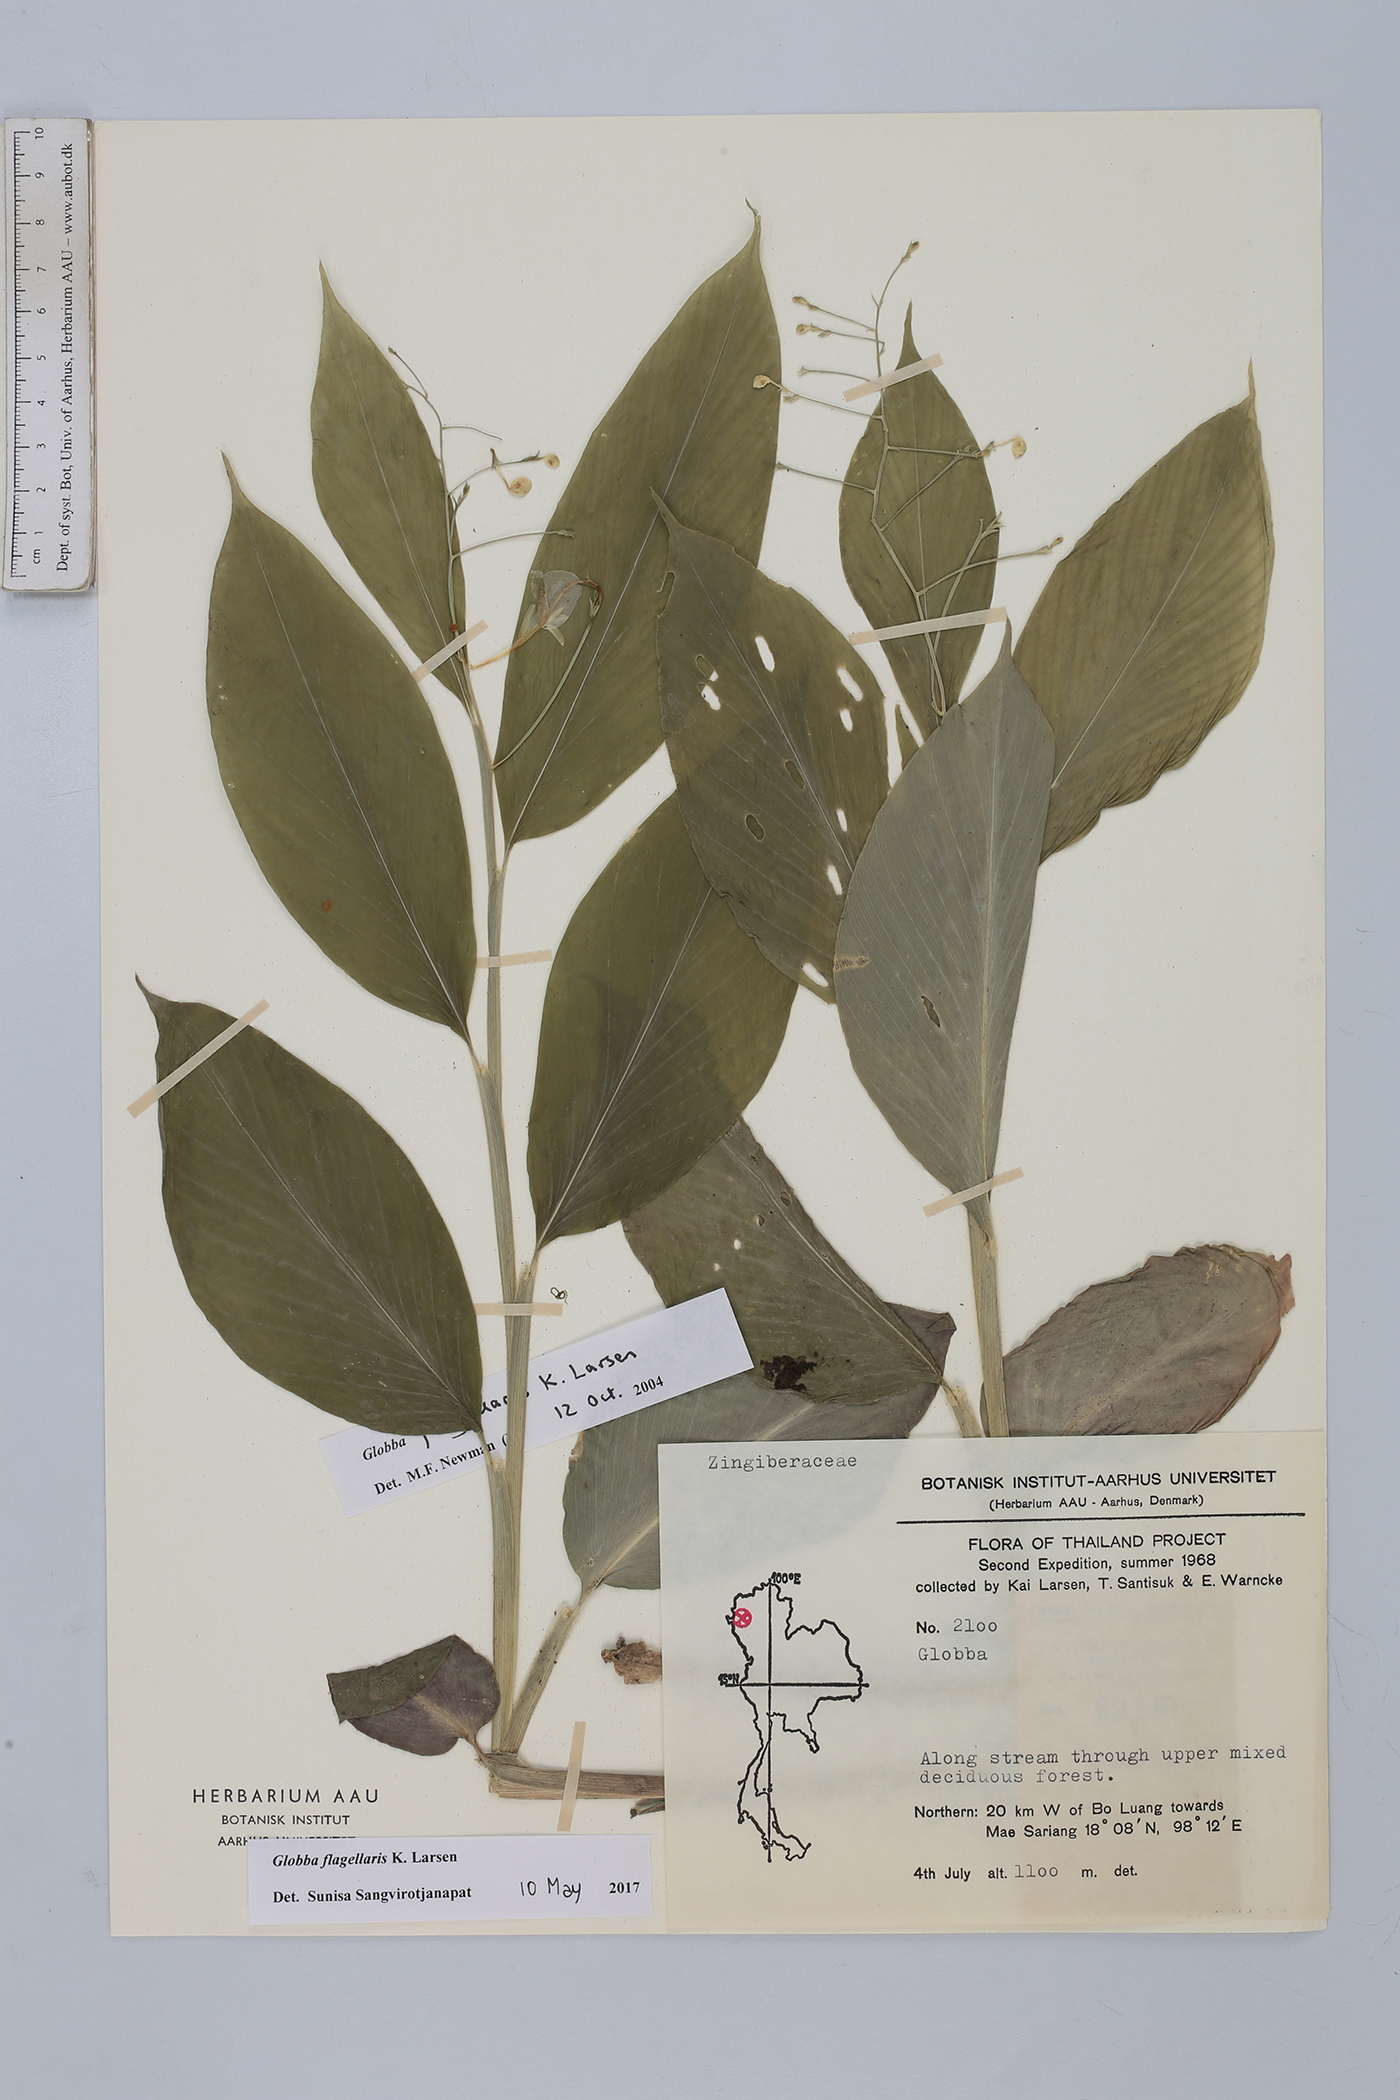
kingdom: Plantae
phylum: Tracheophyta
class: Liliopsida
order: Zingiberales
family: Zingiberaceae
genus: Globba
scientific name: Globba flagellaris
